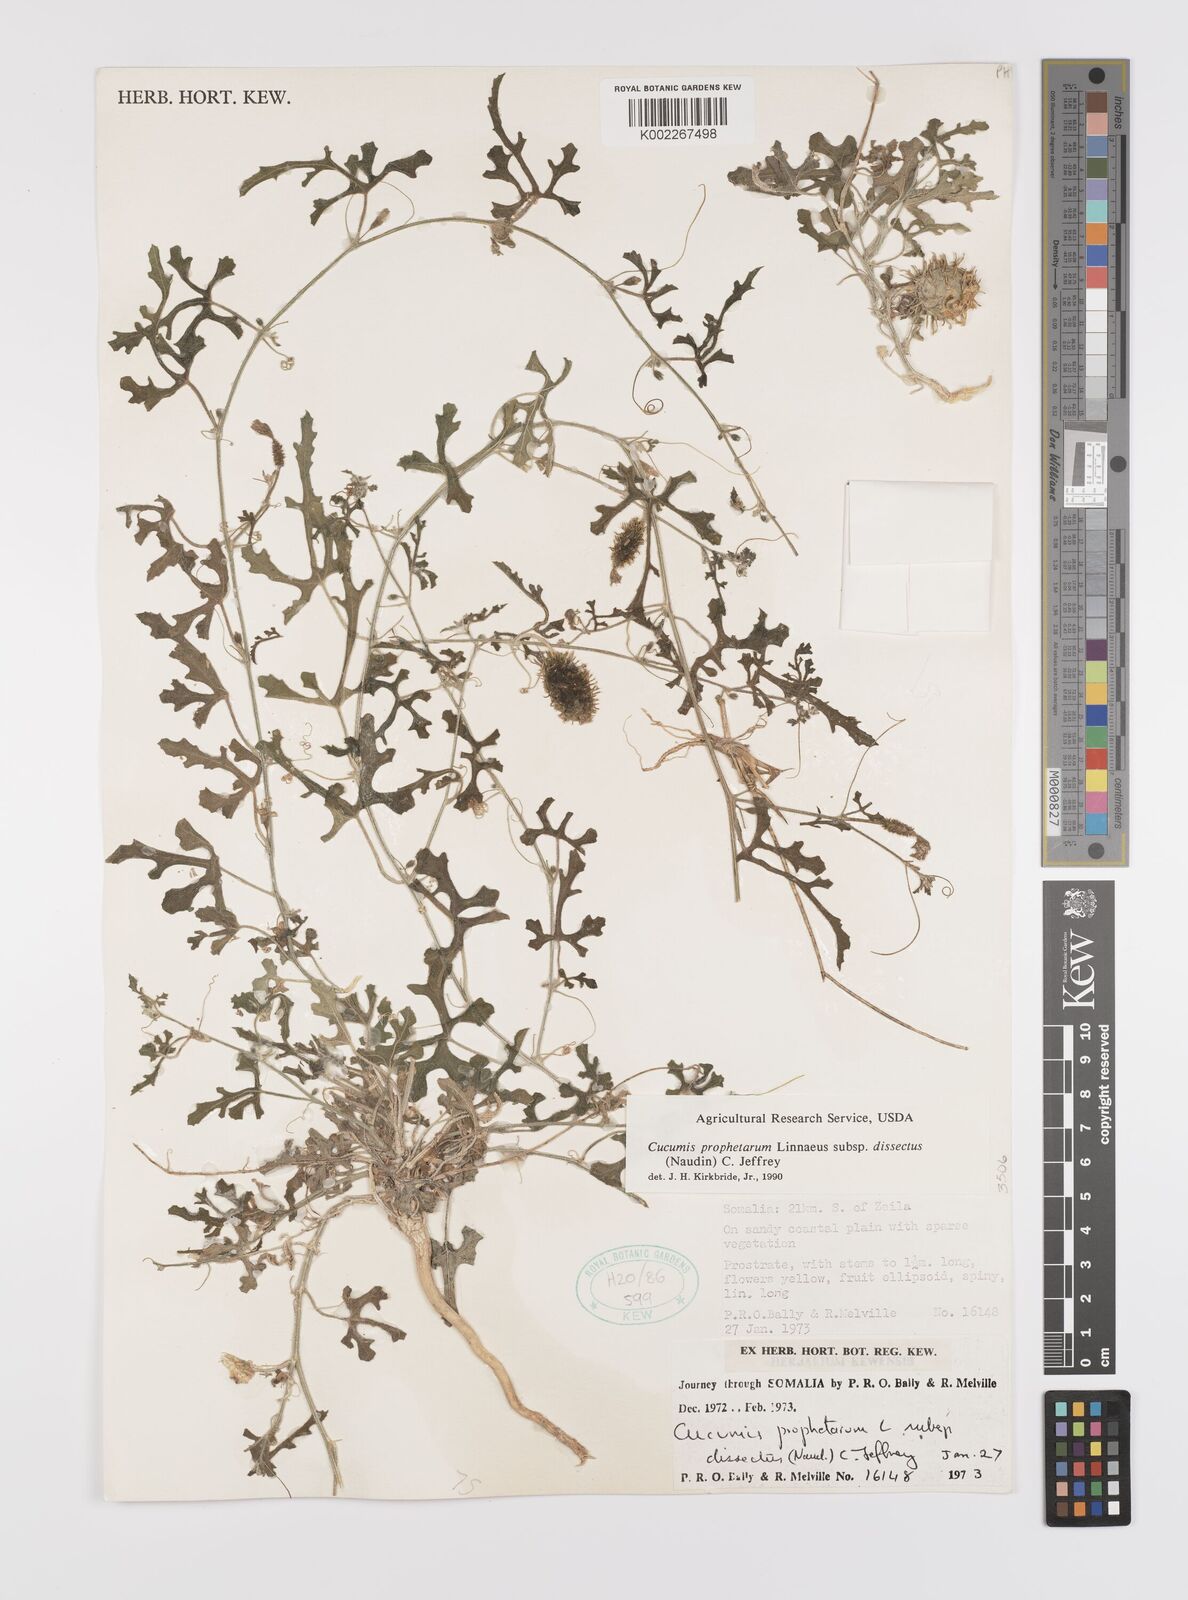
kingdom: Plantae
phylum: Tracheophyta
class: Magnoliopsida
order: Cucurbitales
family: Cucurbitaceae
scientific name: Cucurbitaceae
